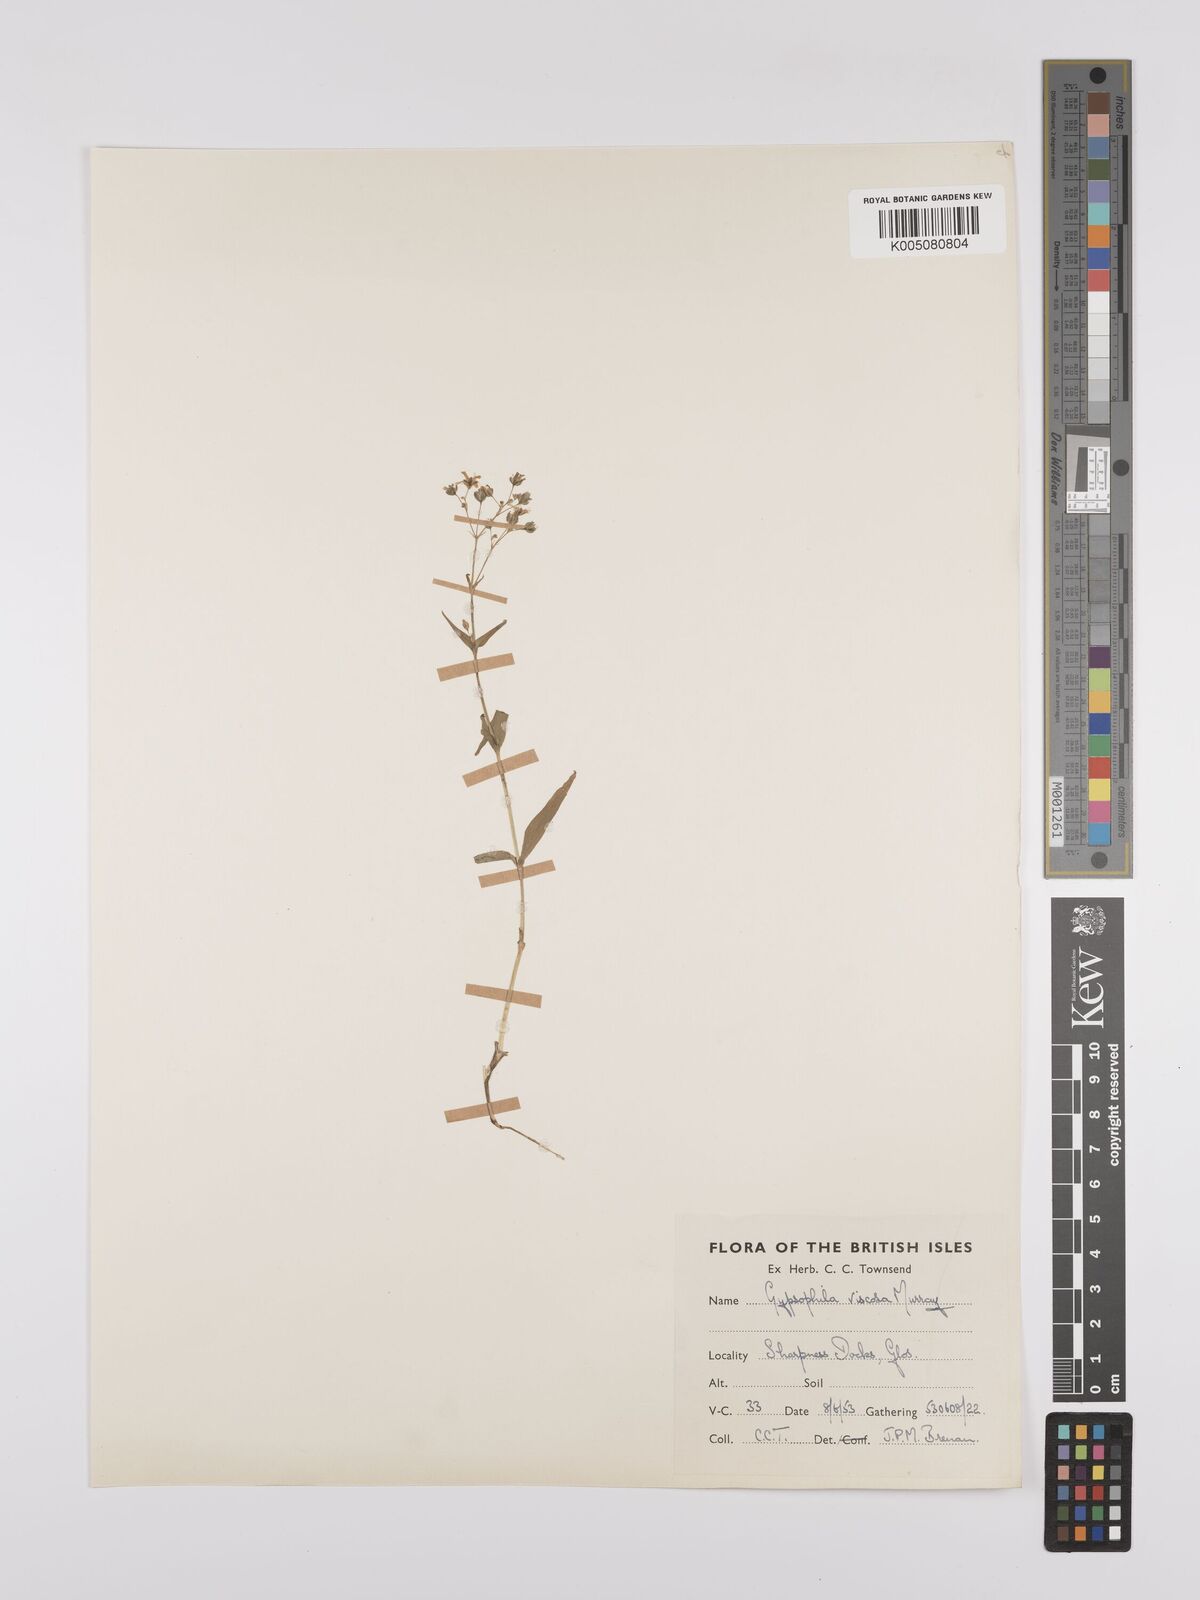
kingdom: Plantae
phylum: Tracheophyta
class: Magnoliopsida
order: Caryophyllales
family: Caryophyllaceae
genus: Gypsophila
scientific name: Gypsophila viscosa
